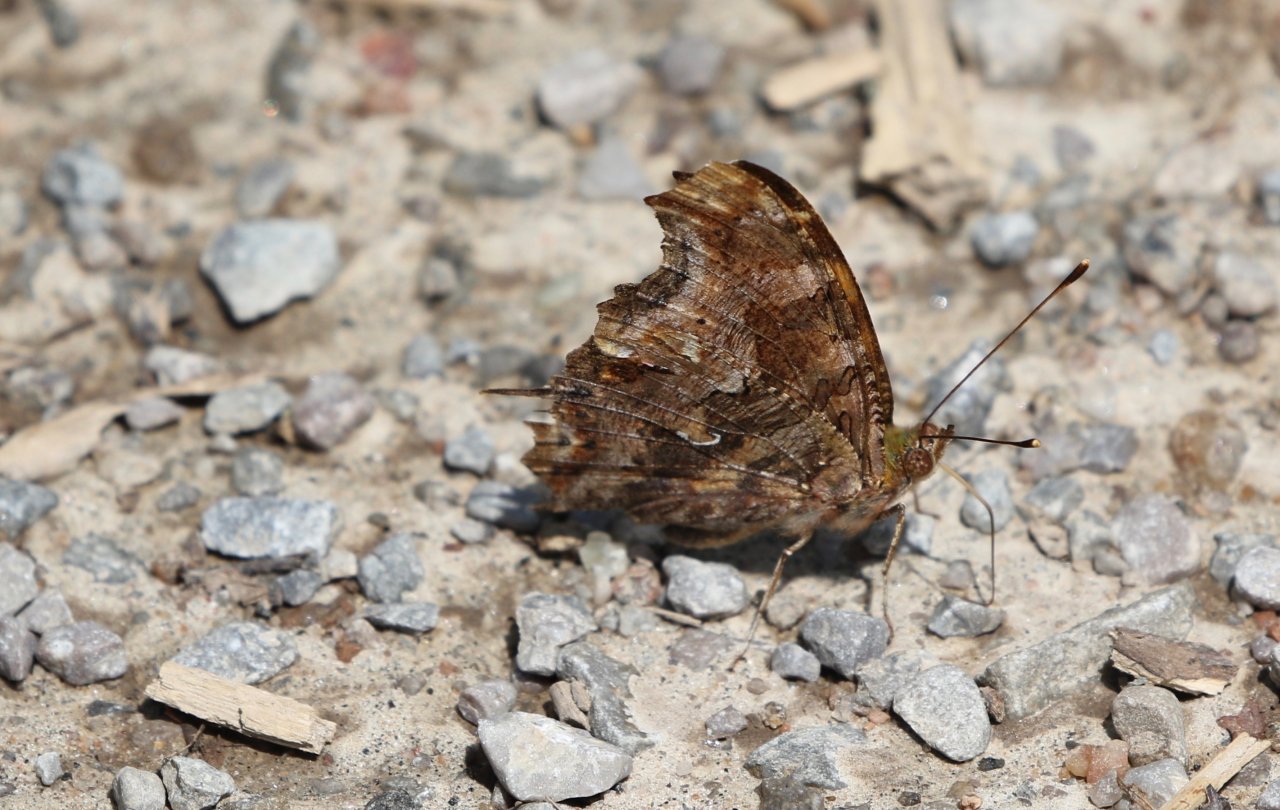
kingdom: Animalia
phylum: Arthropoda
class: Insecta
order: Lepidoptera
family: Nymphalidae
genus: Polygonia
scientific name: Polygonia comma
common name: Eastern Comma
